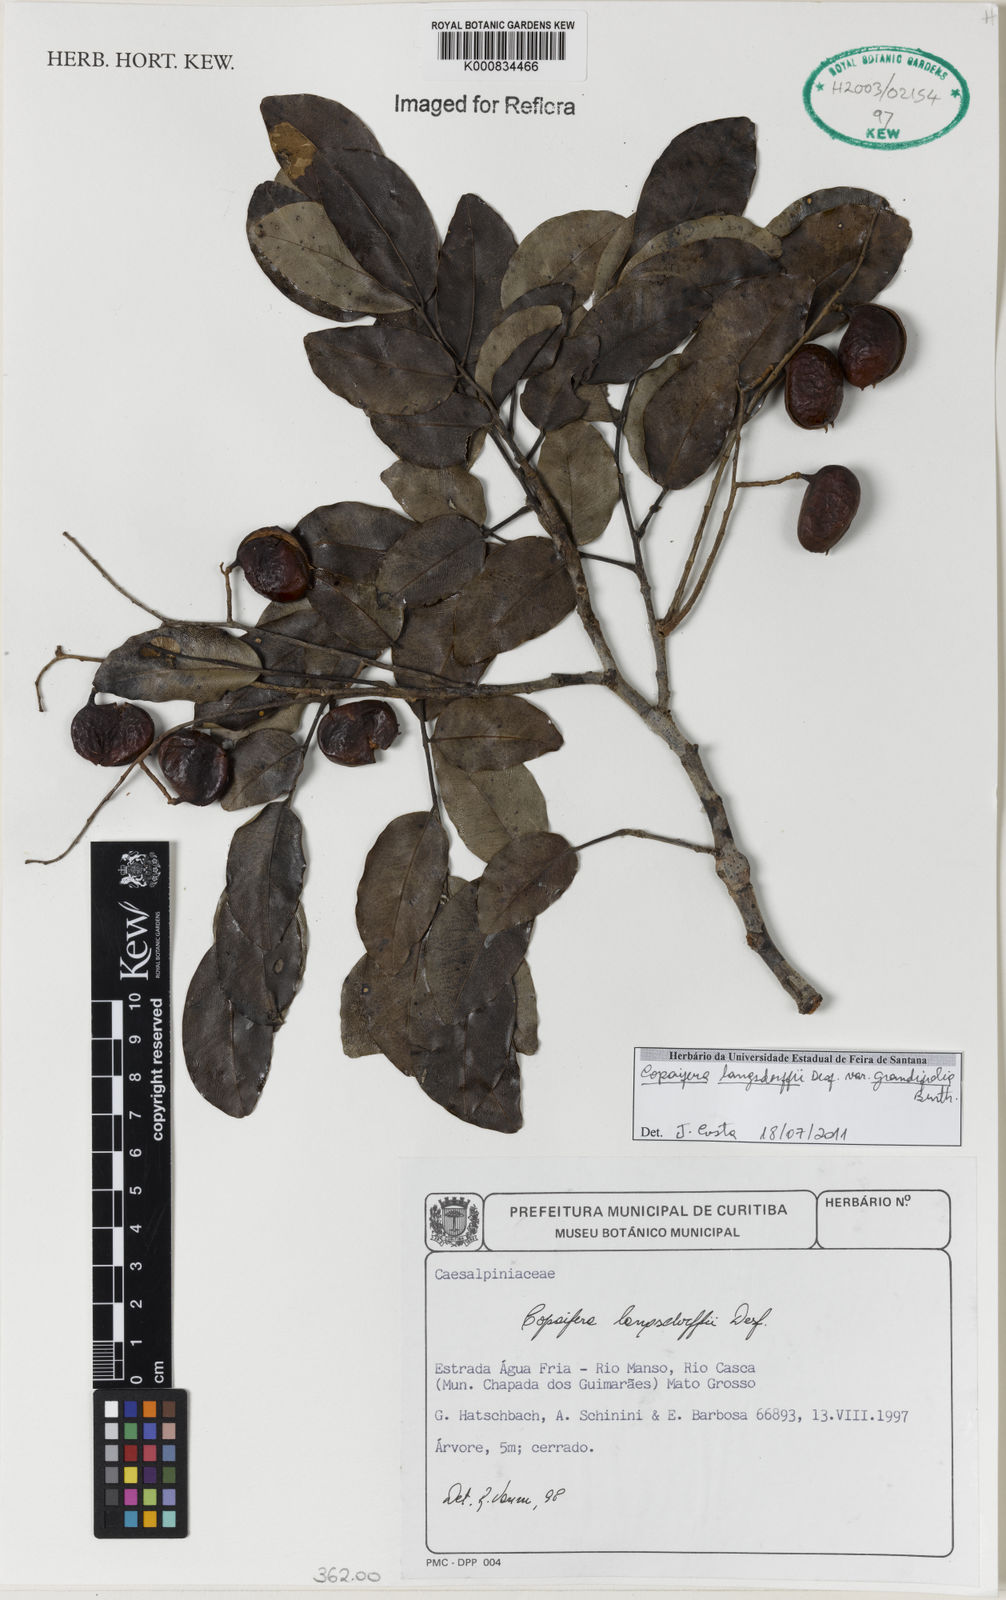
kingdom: Plantae
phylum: Tracheophyta
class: Magnoliopsida
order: Fabales
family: Fabaceae
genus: Copaifera
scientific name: Copaifera langsdorffii
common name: Brazilian diesel tree
